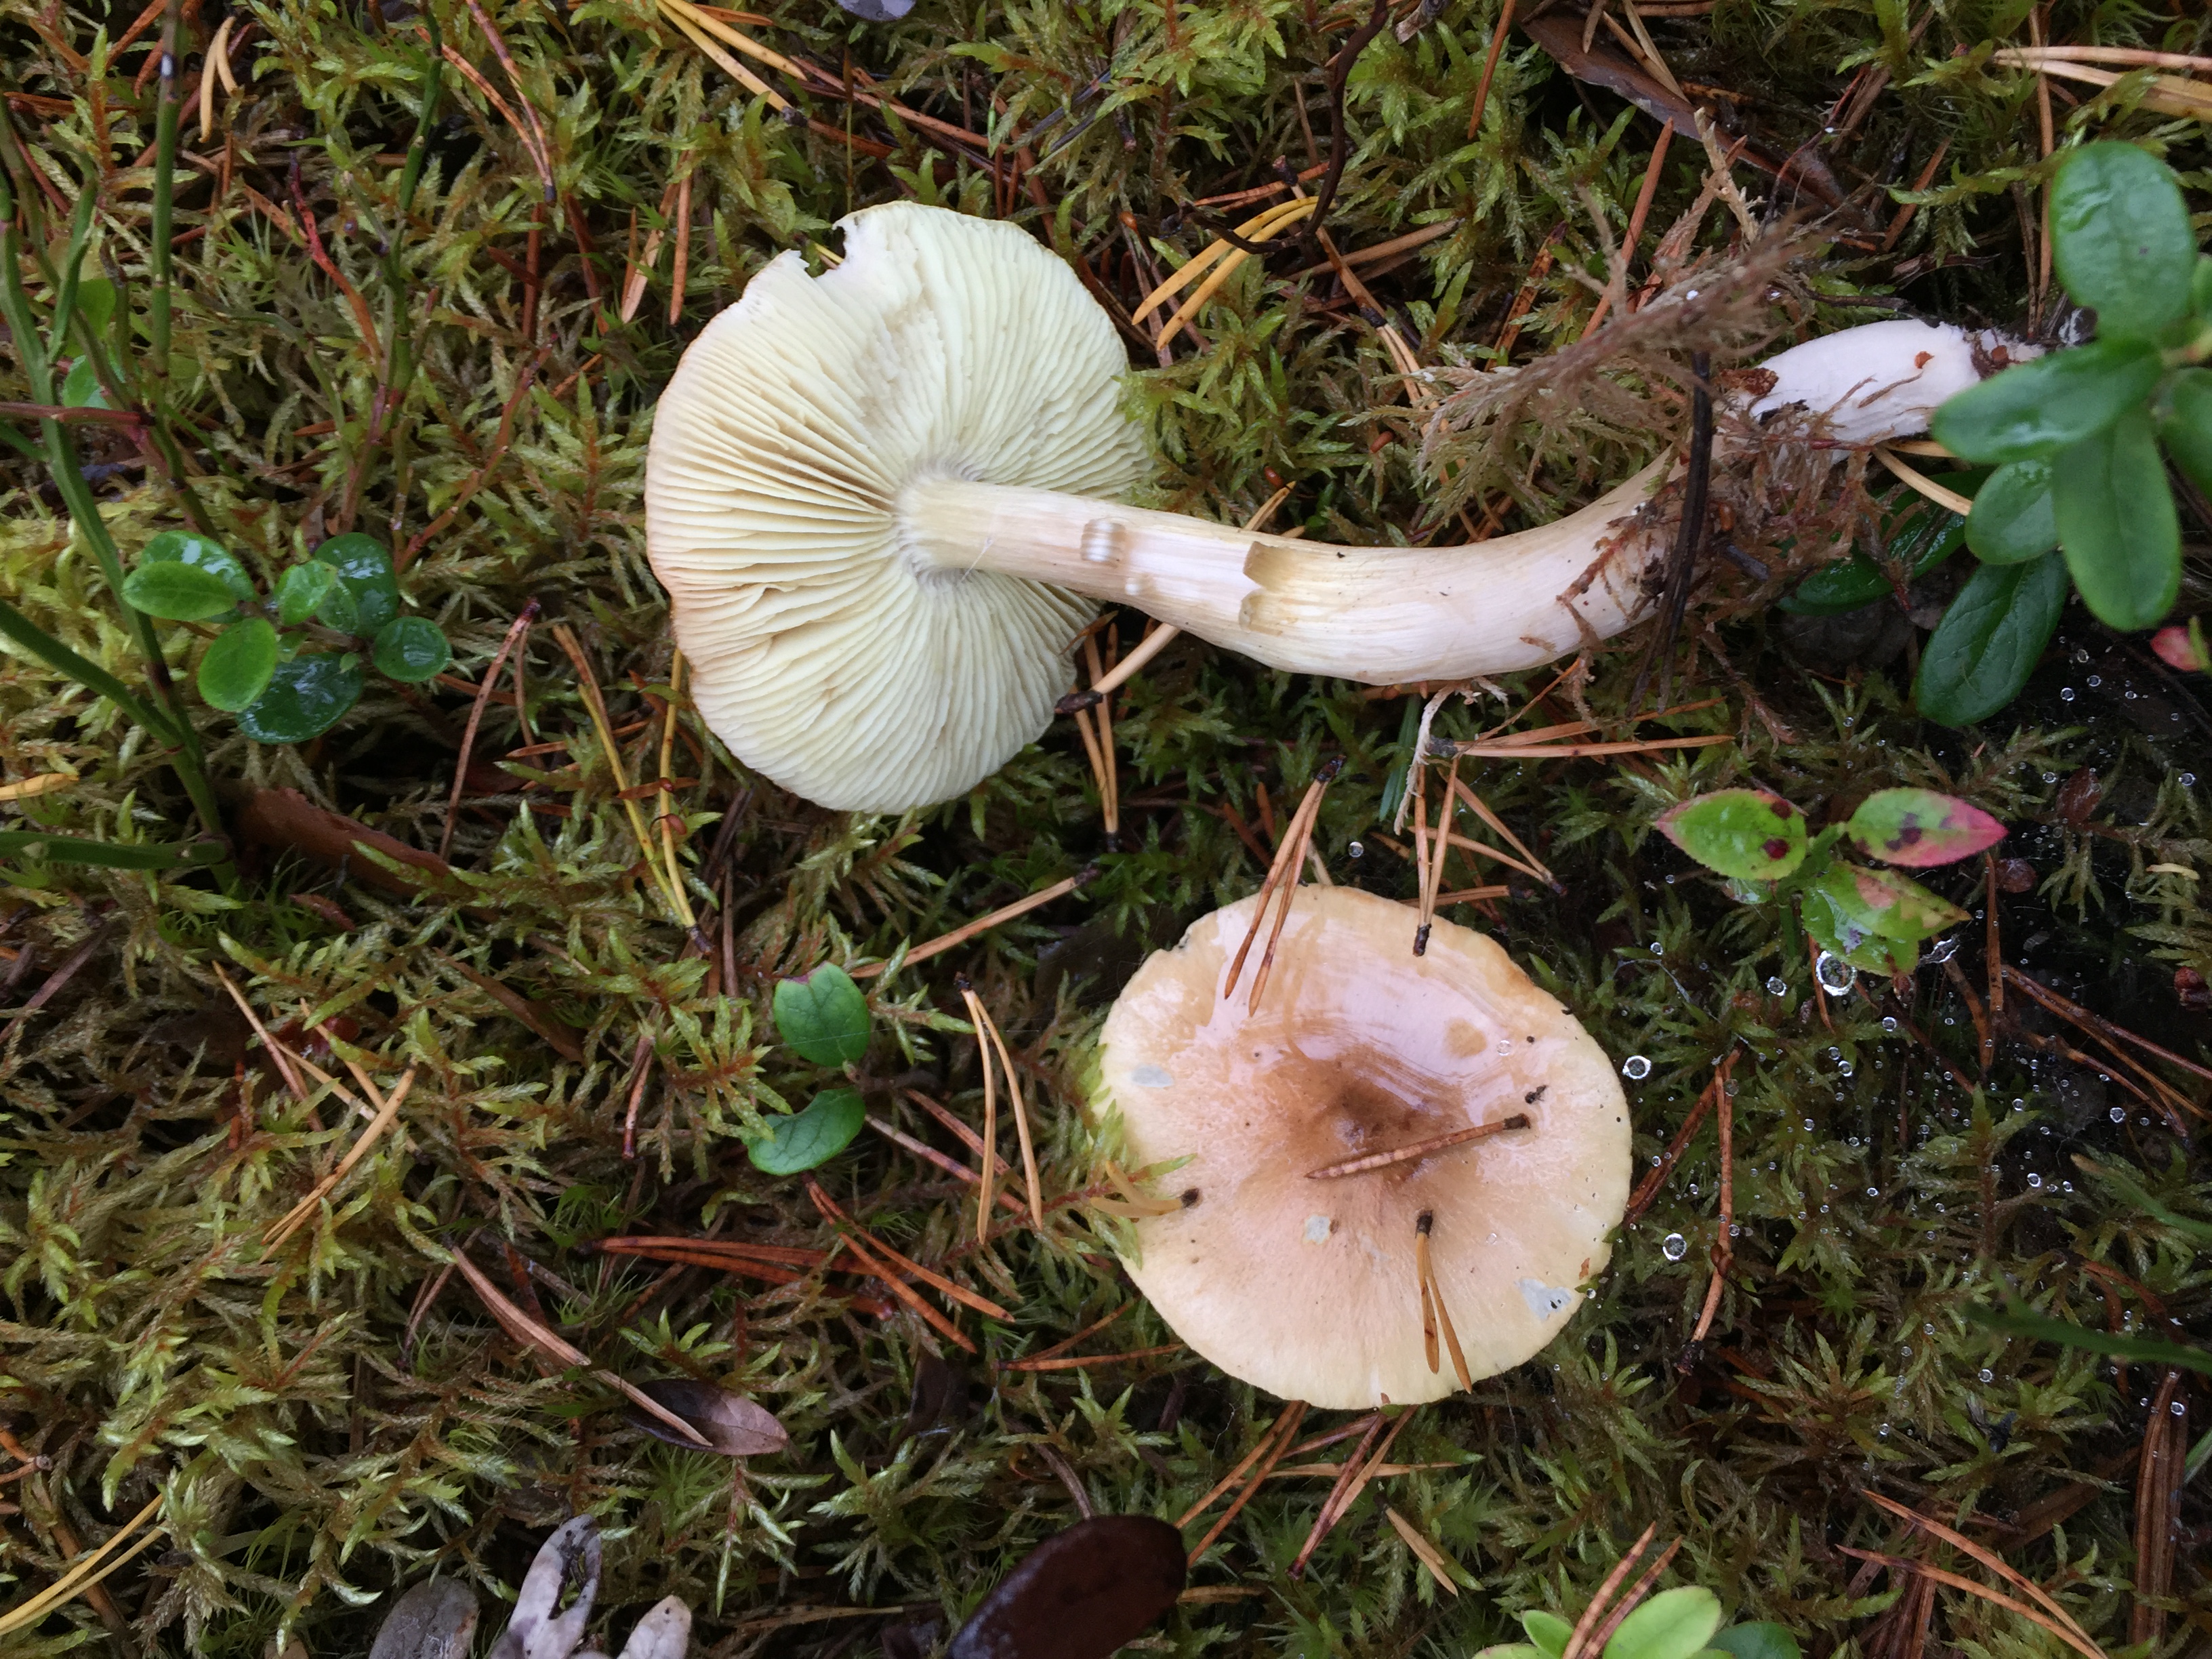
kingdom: Fungi
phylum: Basidiomycota
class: Agaricomycetes
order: Agaricales
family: Tricholomataceae
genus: Tricholoma
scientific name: Tricholoma aestuans
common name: Acrid knight
